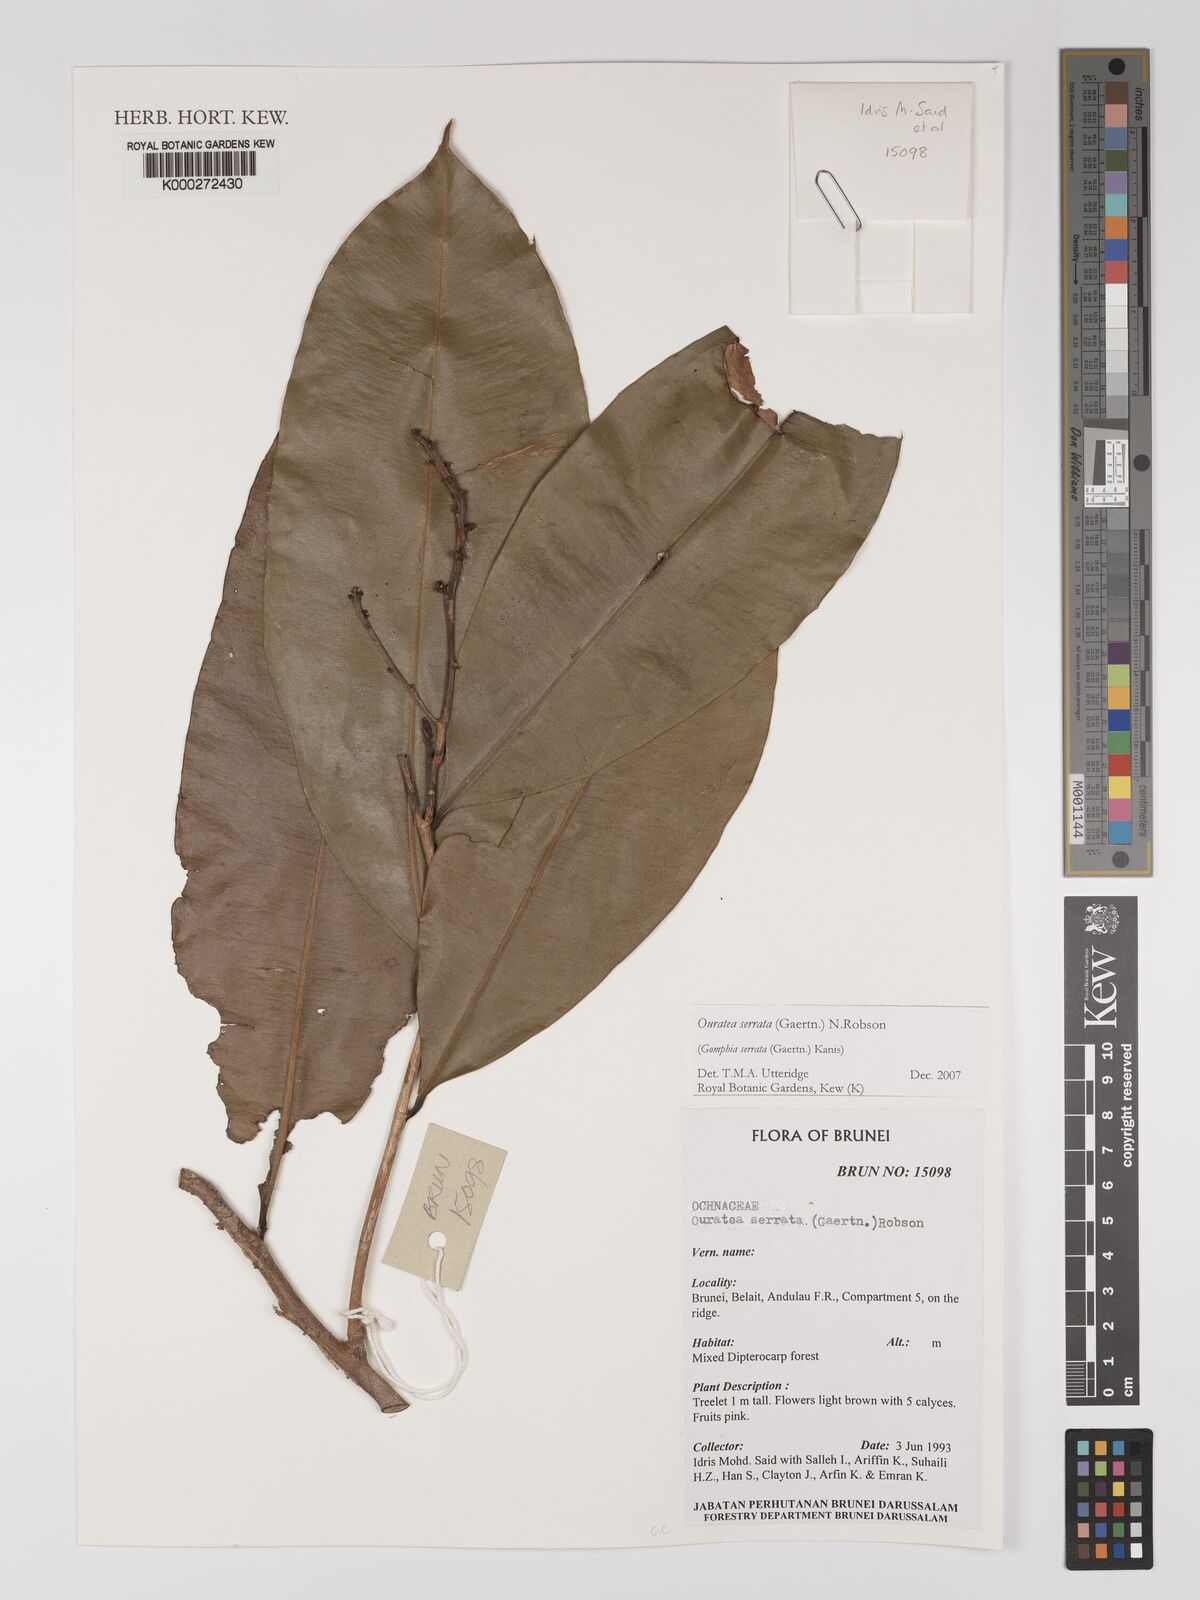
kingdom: Plantae
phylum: Tracheophyta
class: Magnoliopsida
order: Malpighiales
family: Ochnaceae
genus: Gomphia
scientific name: Gomphia serrata
